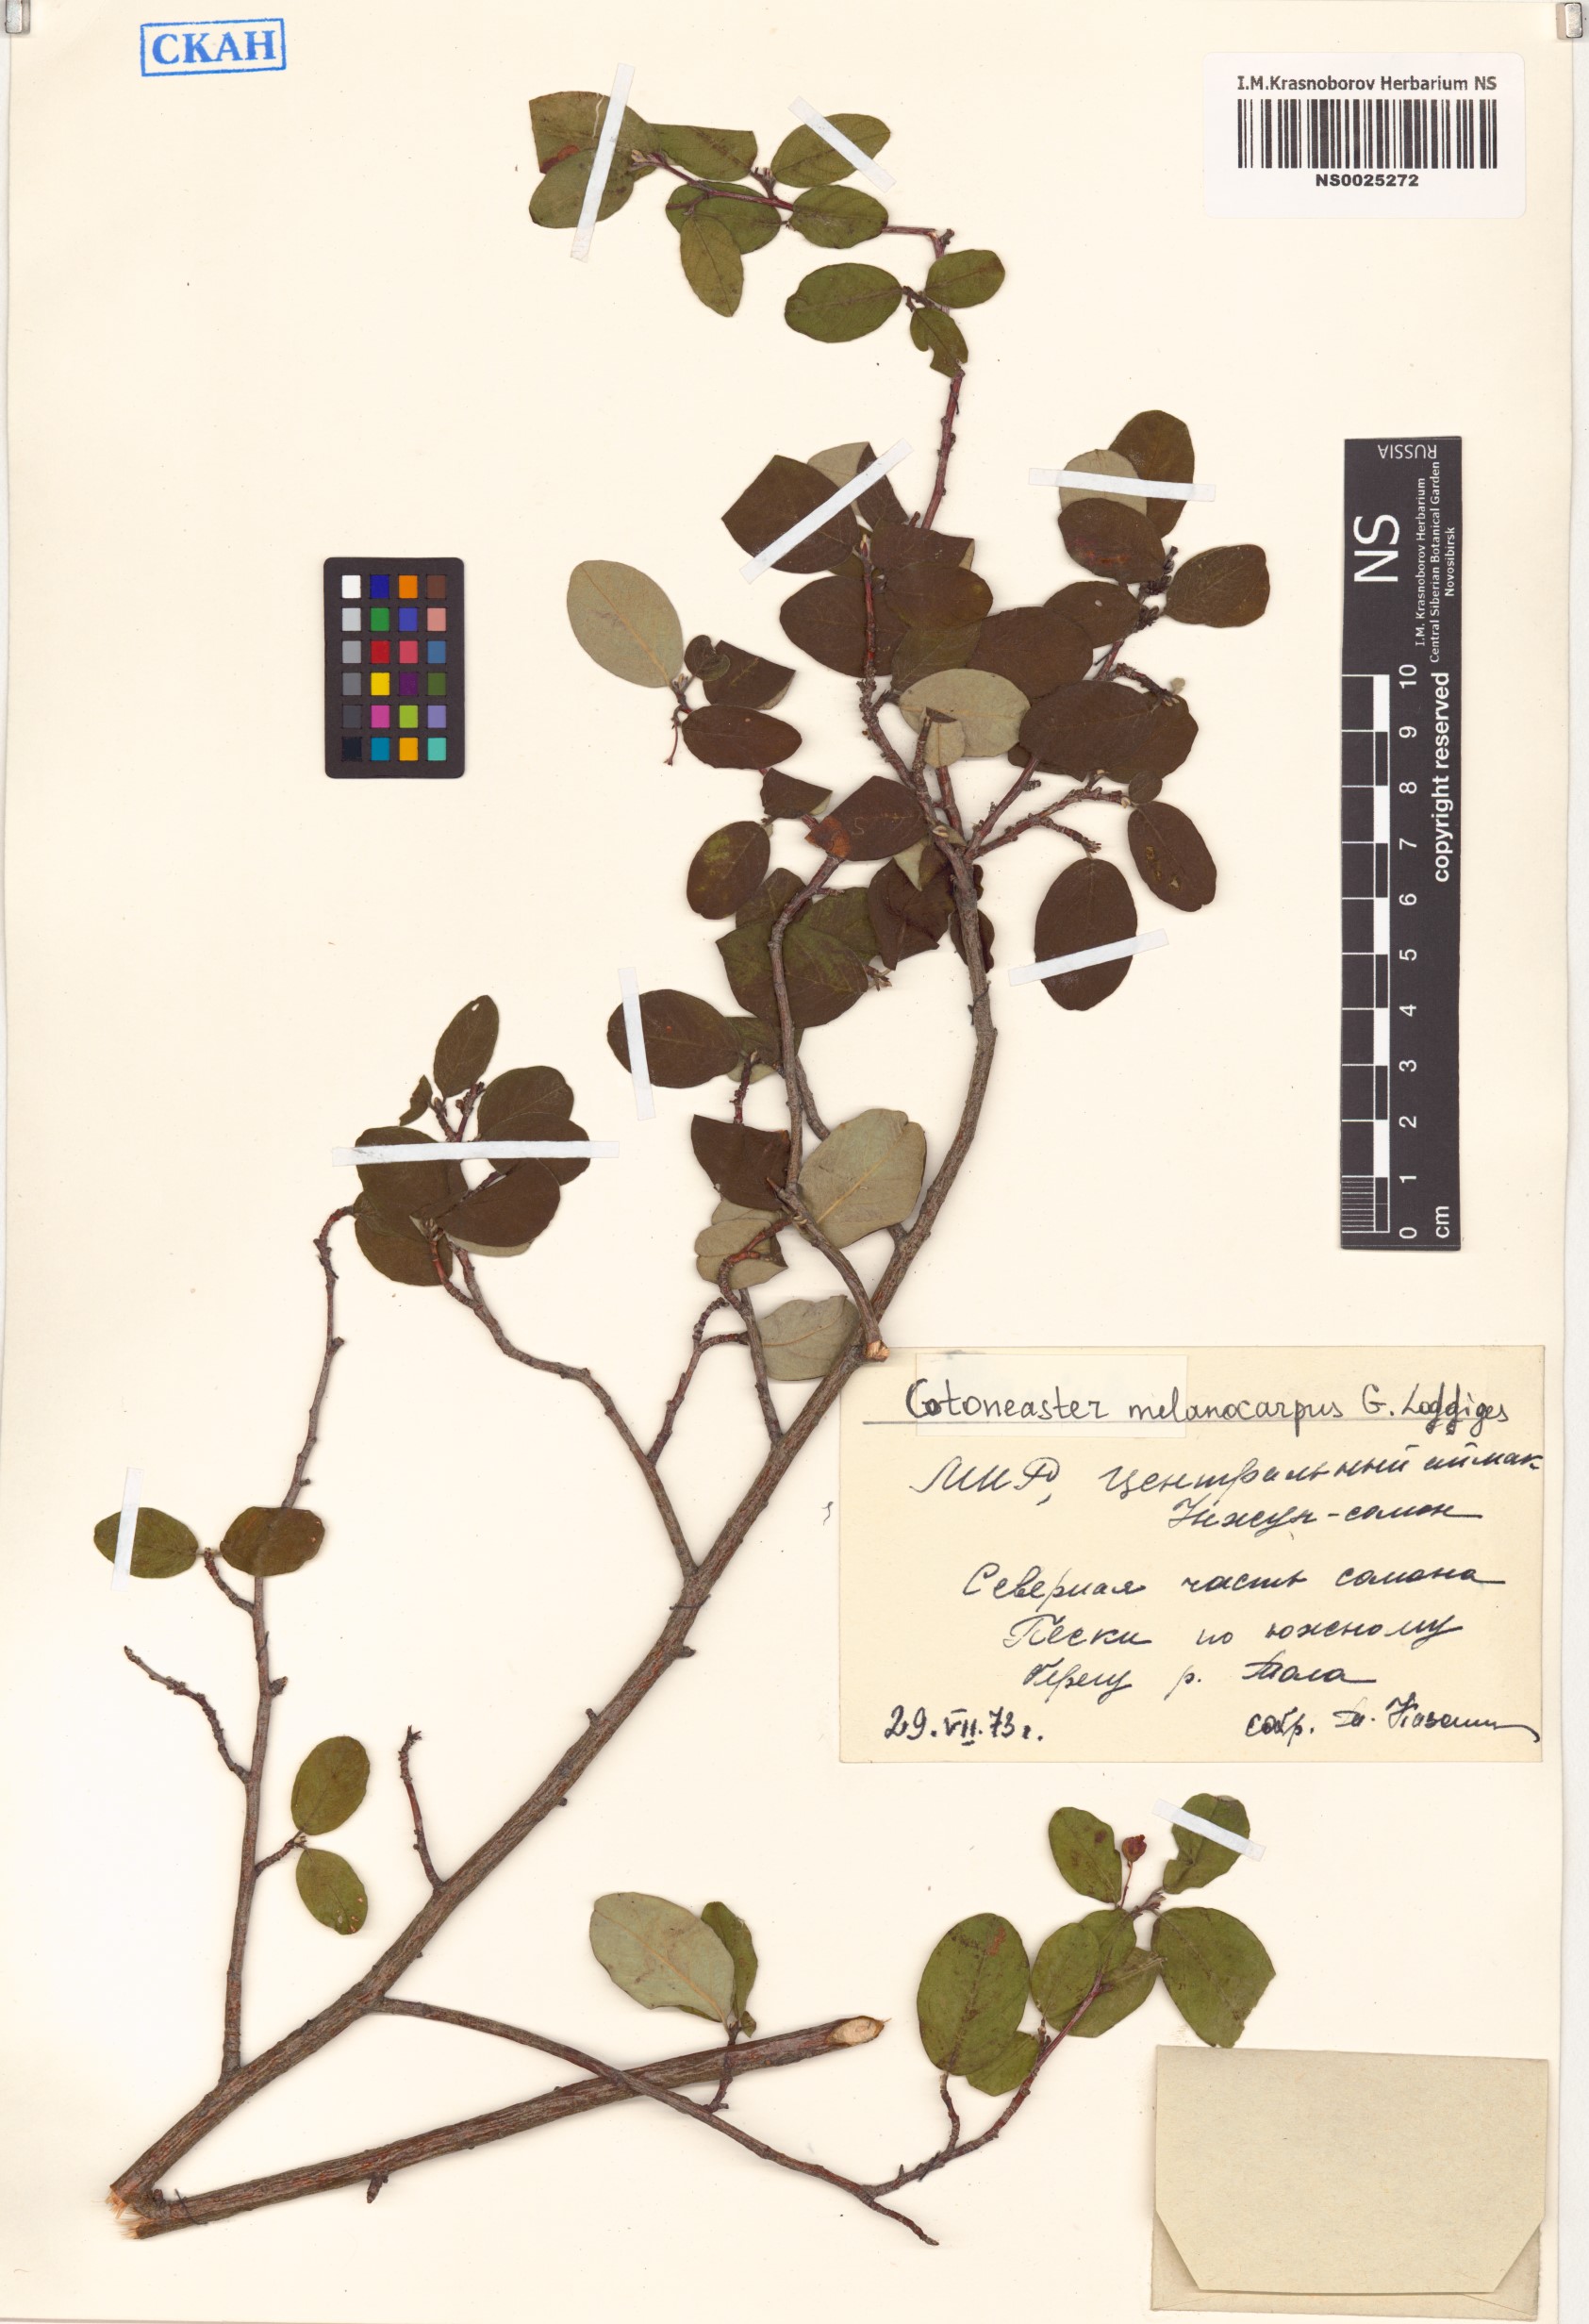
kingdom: Plantae
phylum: Tracheophyta
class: Magnoliopsida
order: Rosales
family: Rosaceae
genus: Cotoneaster
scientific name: Cotoneaster melanocarpus
